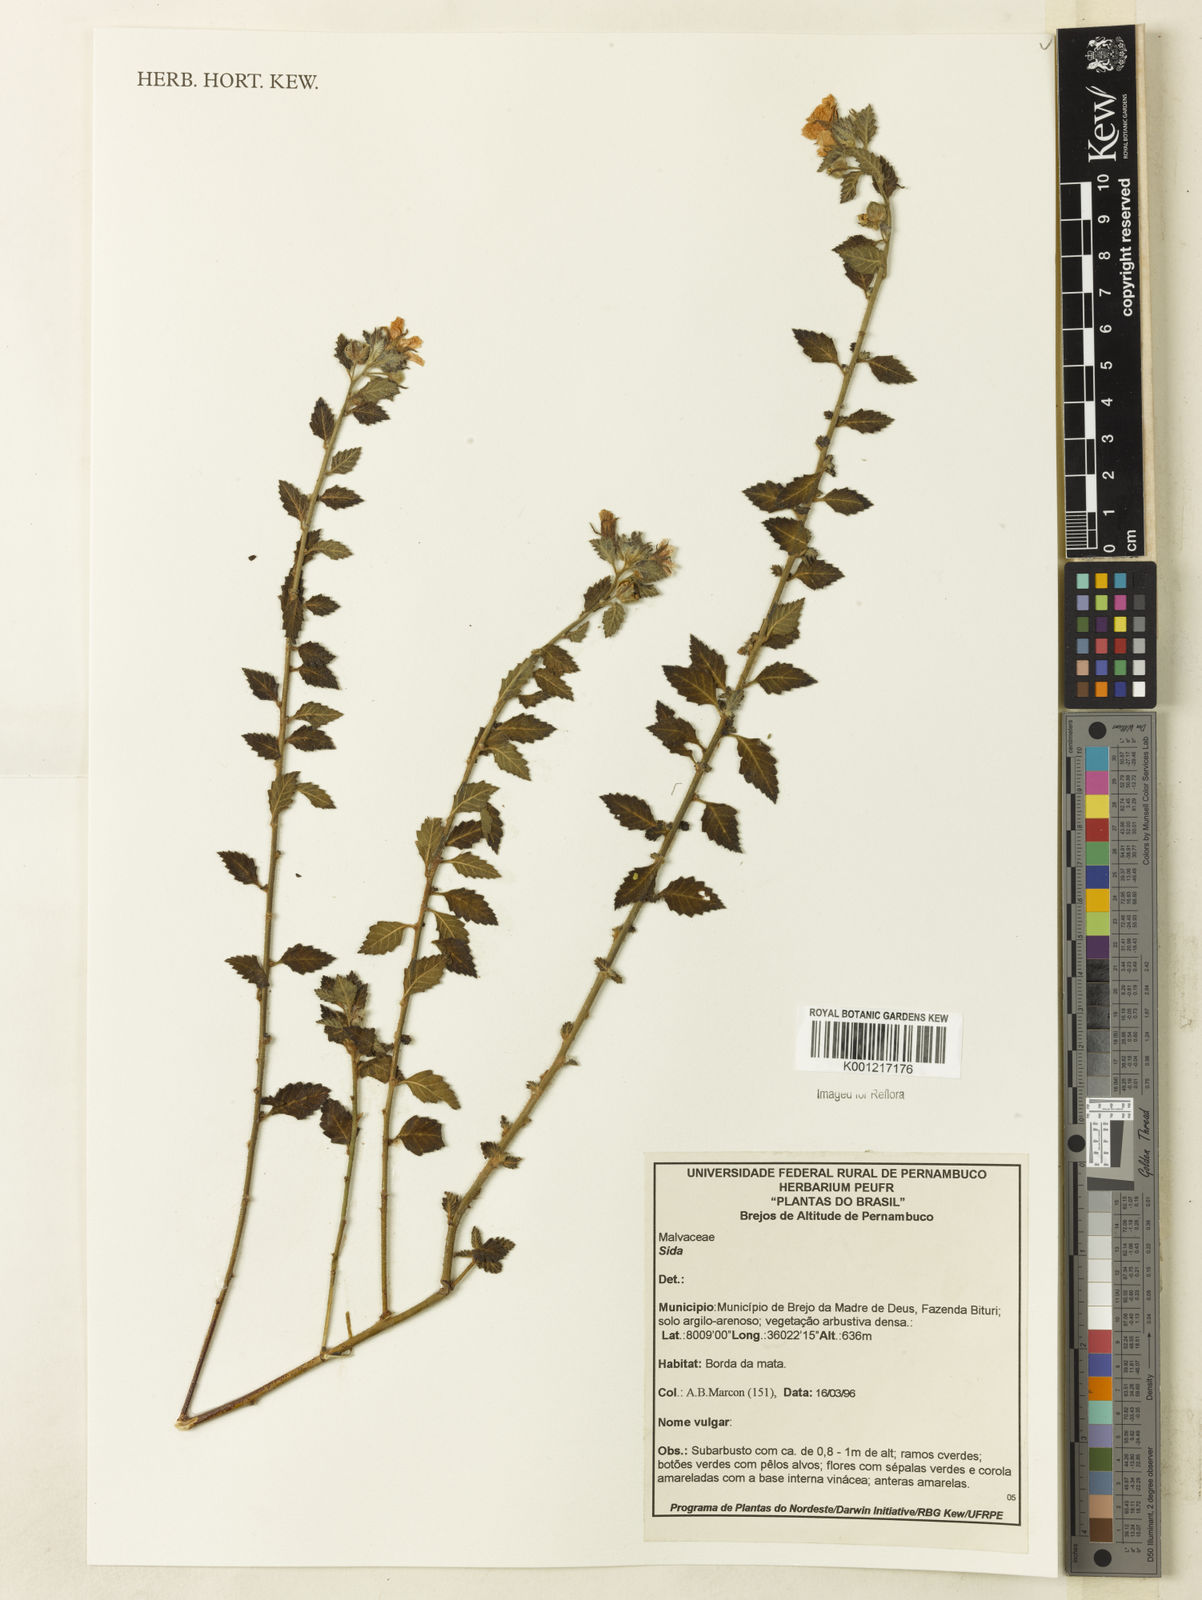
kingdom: Plantae
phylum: Tracheophyta
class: Magnoliopsida
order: Malvales
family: Malvaceae
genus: Sida
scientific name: Sida
